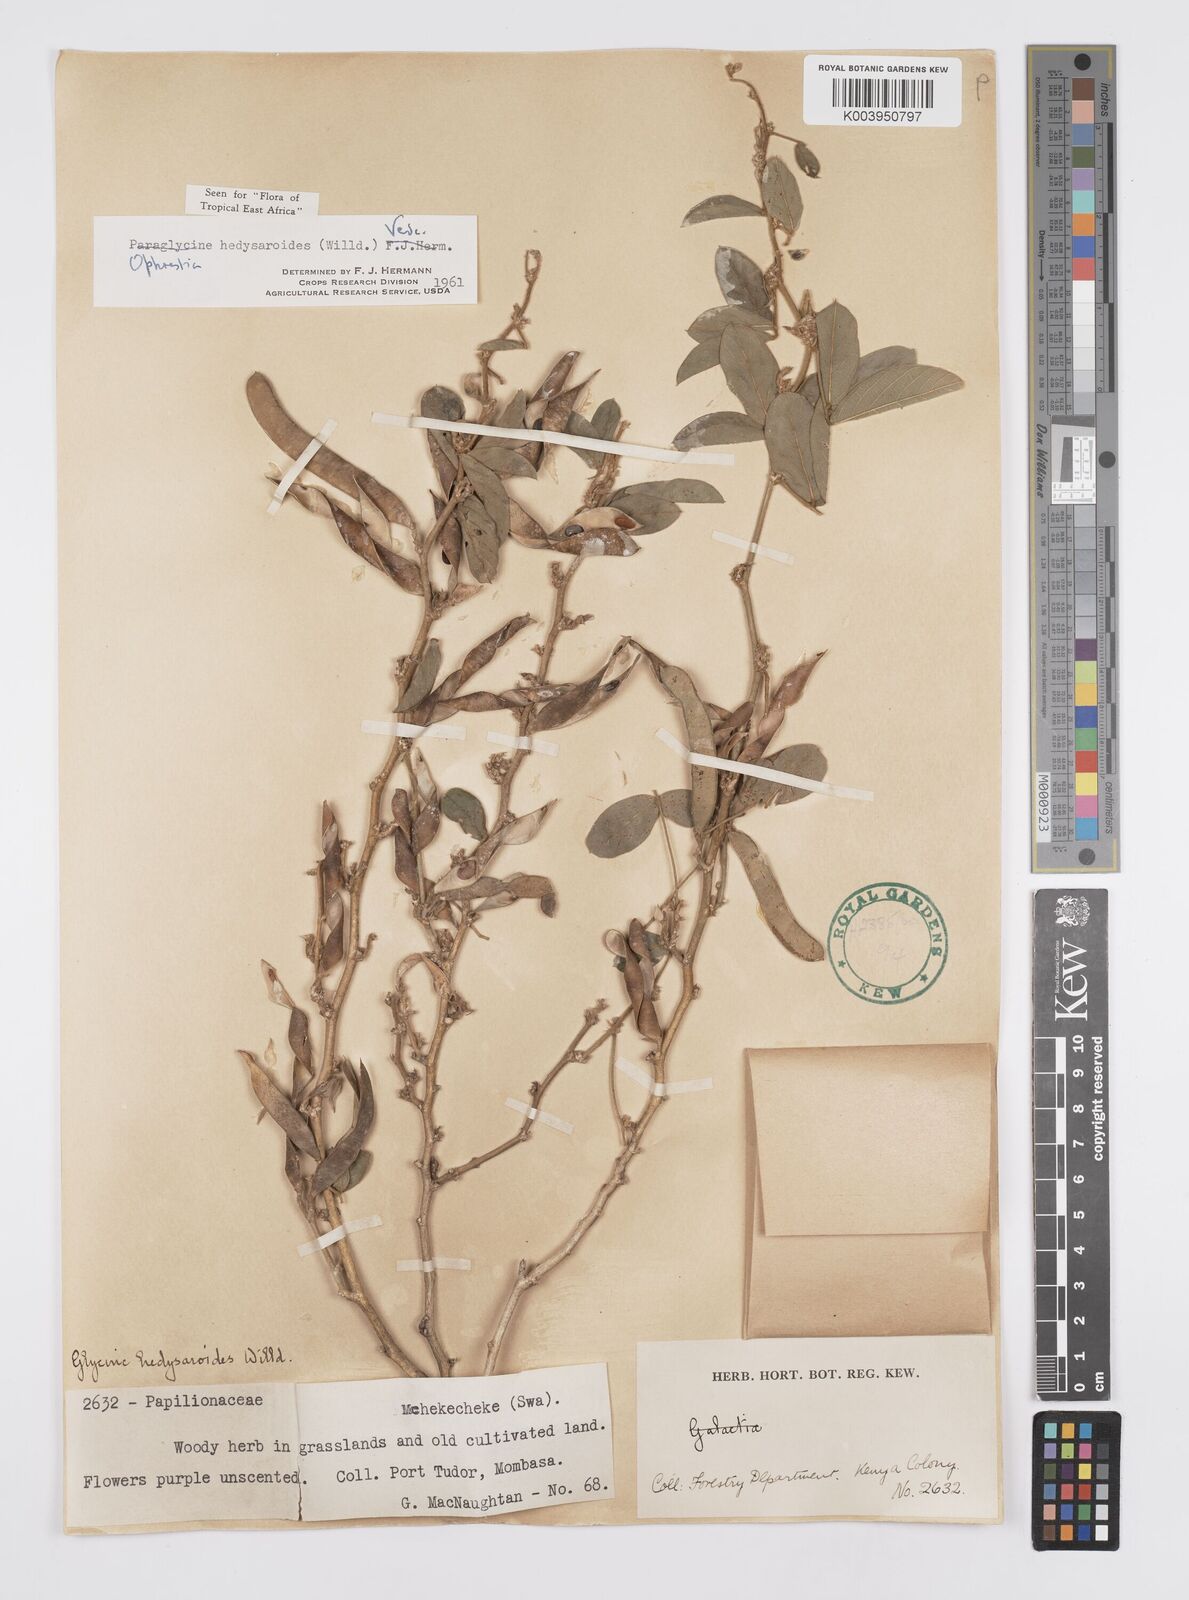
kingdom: Plantae
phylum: Tracheophyta
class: Magnoliopsida
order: Fabales
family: Fabaceae
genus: Ophrestia
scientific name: Ophrestia hedysaroides
